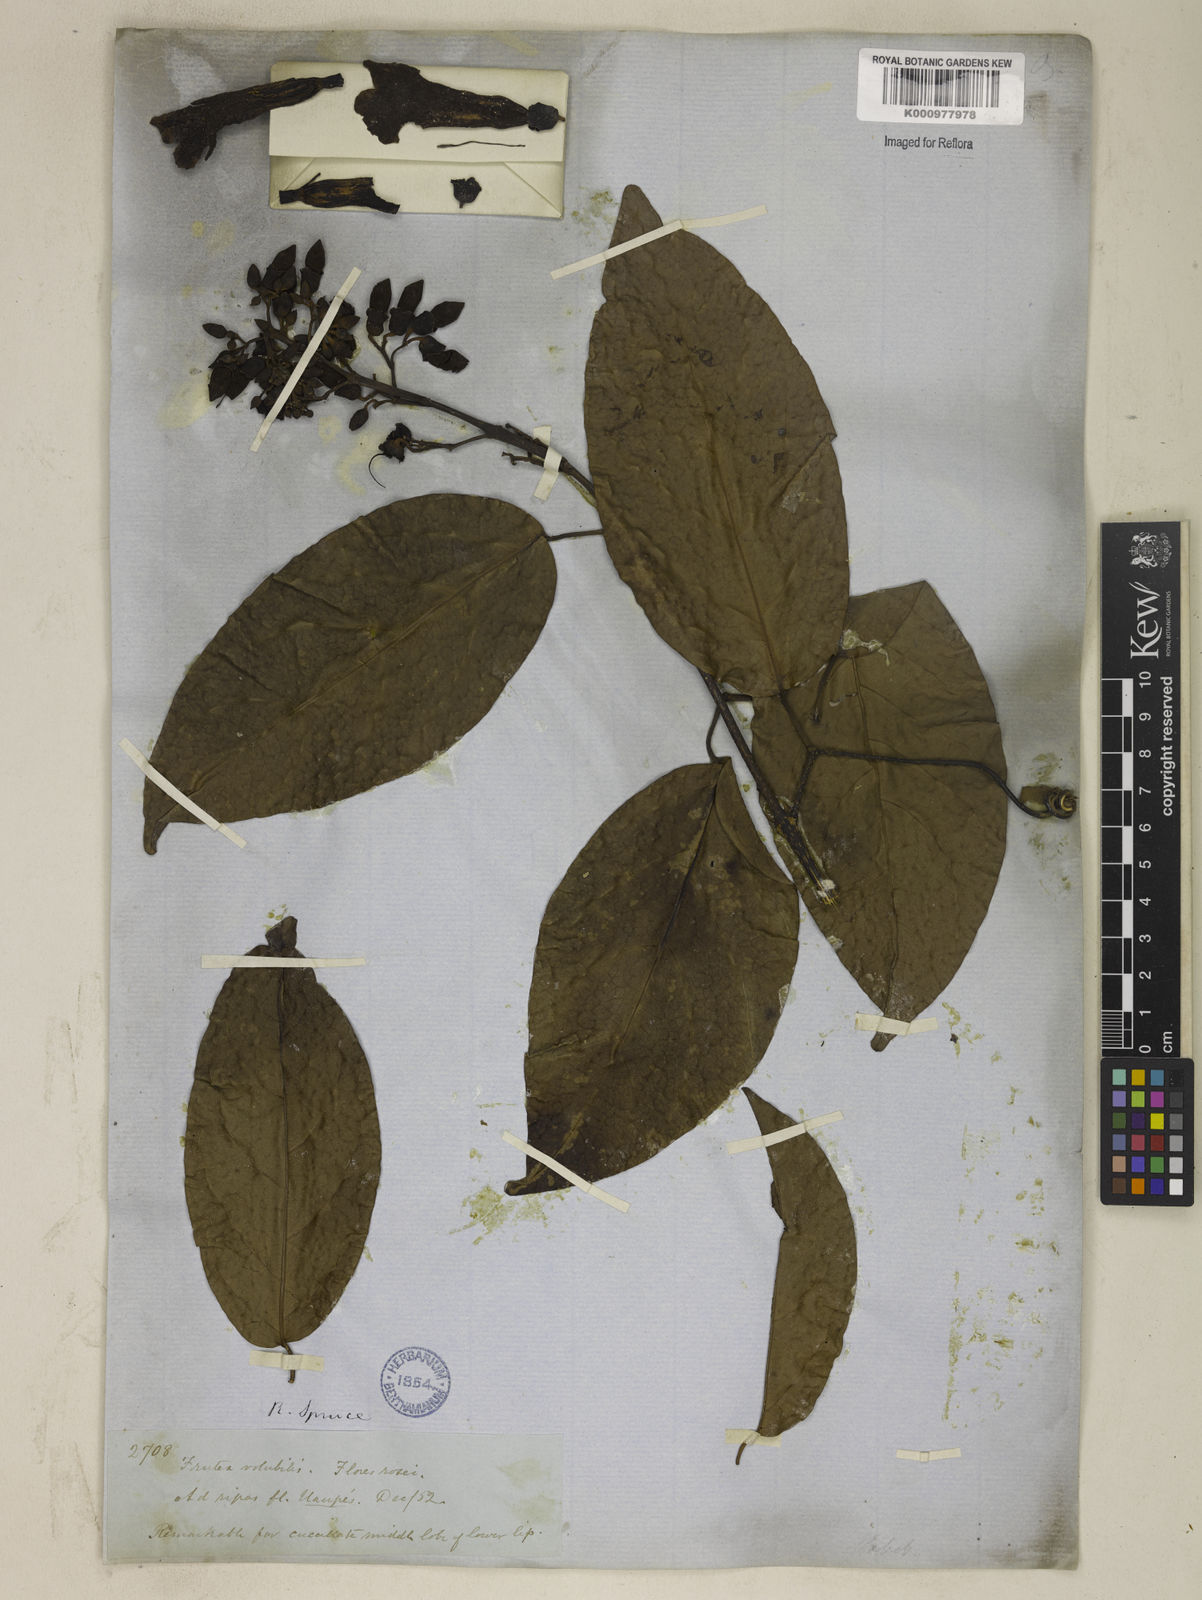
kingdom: Plantae
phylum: Tracheophyta
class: Magnoliopsida
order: Lamiales
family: Bignoniaceae
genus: Tanaecium
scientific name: Tanaecium pyramidatum
